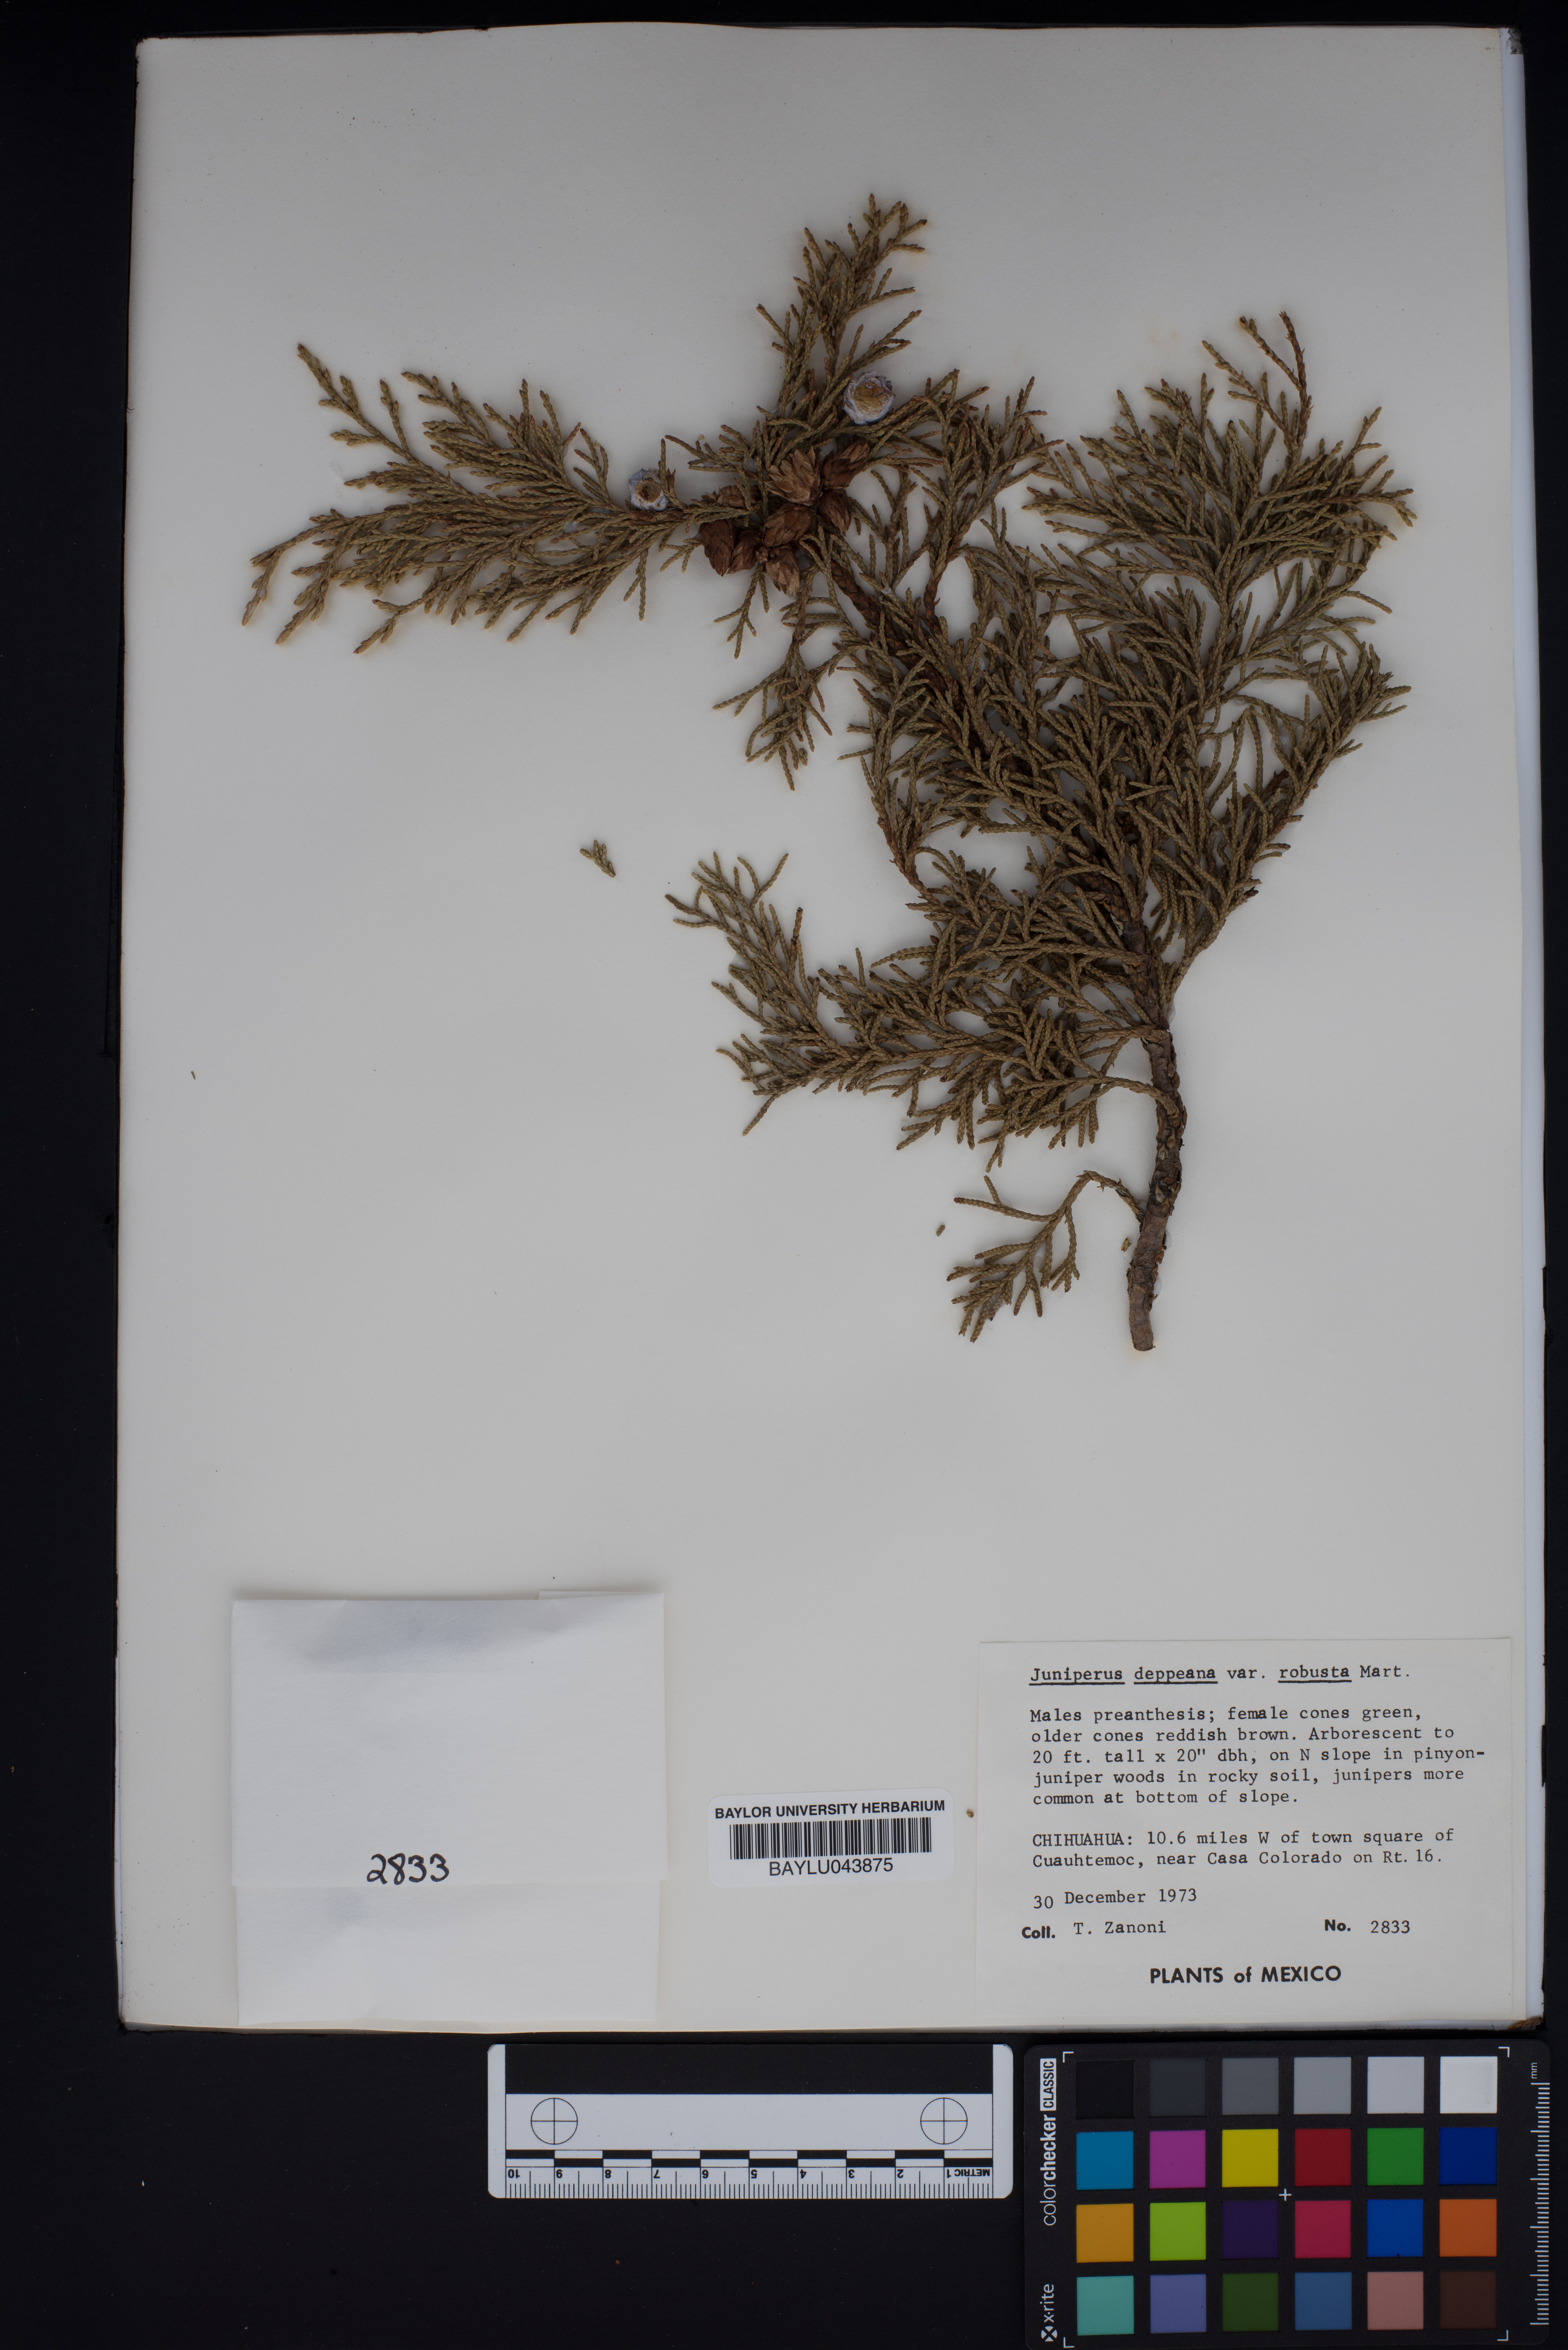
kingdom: Plantae
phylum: Tracheophyta
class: Pinopsida
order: Pinales
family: Cupressaceae
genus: Juniperus
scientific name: Juniperus deppeana
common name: Alligator juniper
